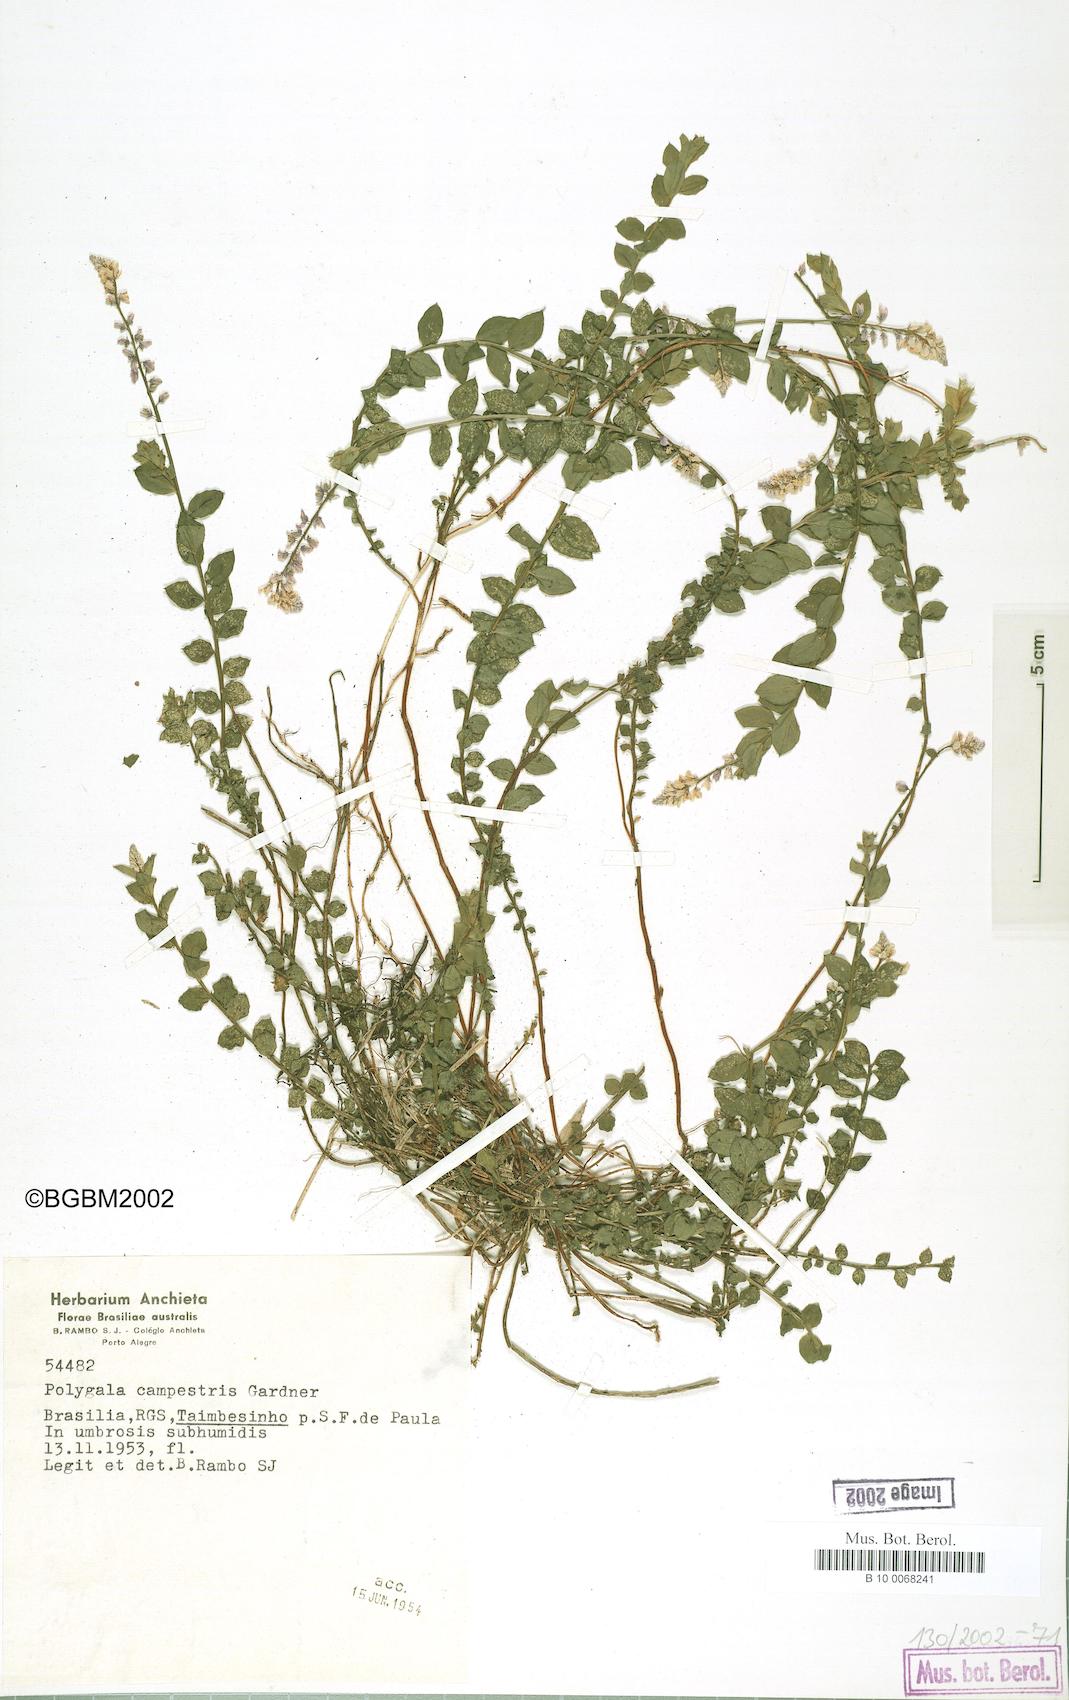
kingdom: Plantae
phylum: Tracheophyta
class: Magnoliopsida
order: Fabales
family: Polygalaceae
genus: Polygala
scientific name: Polygala campestris
